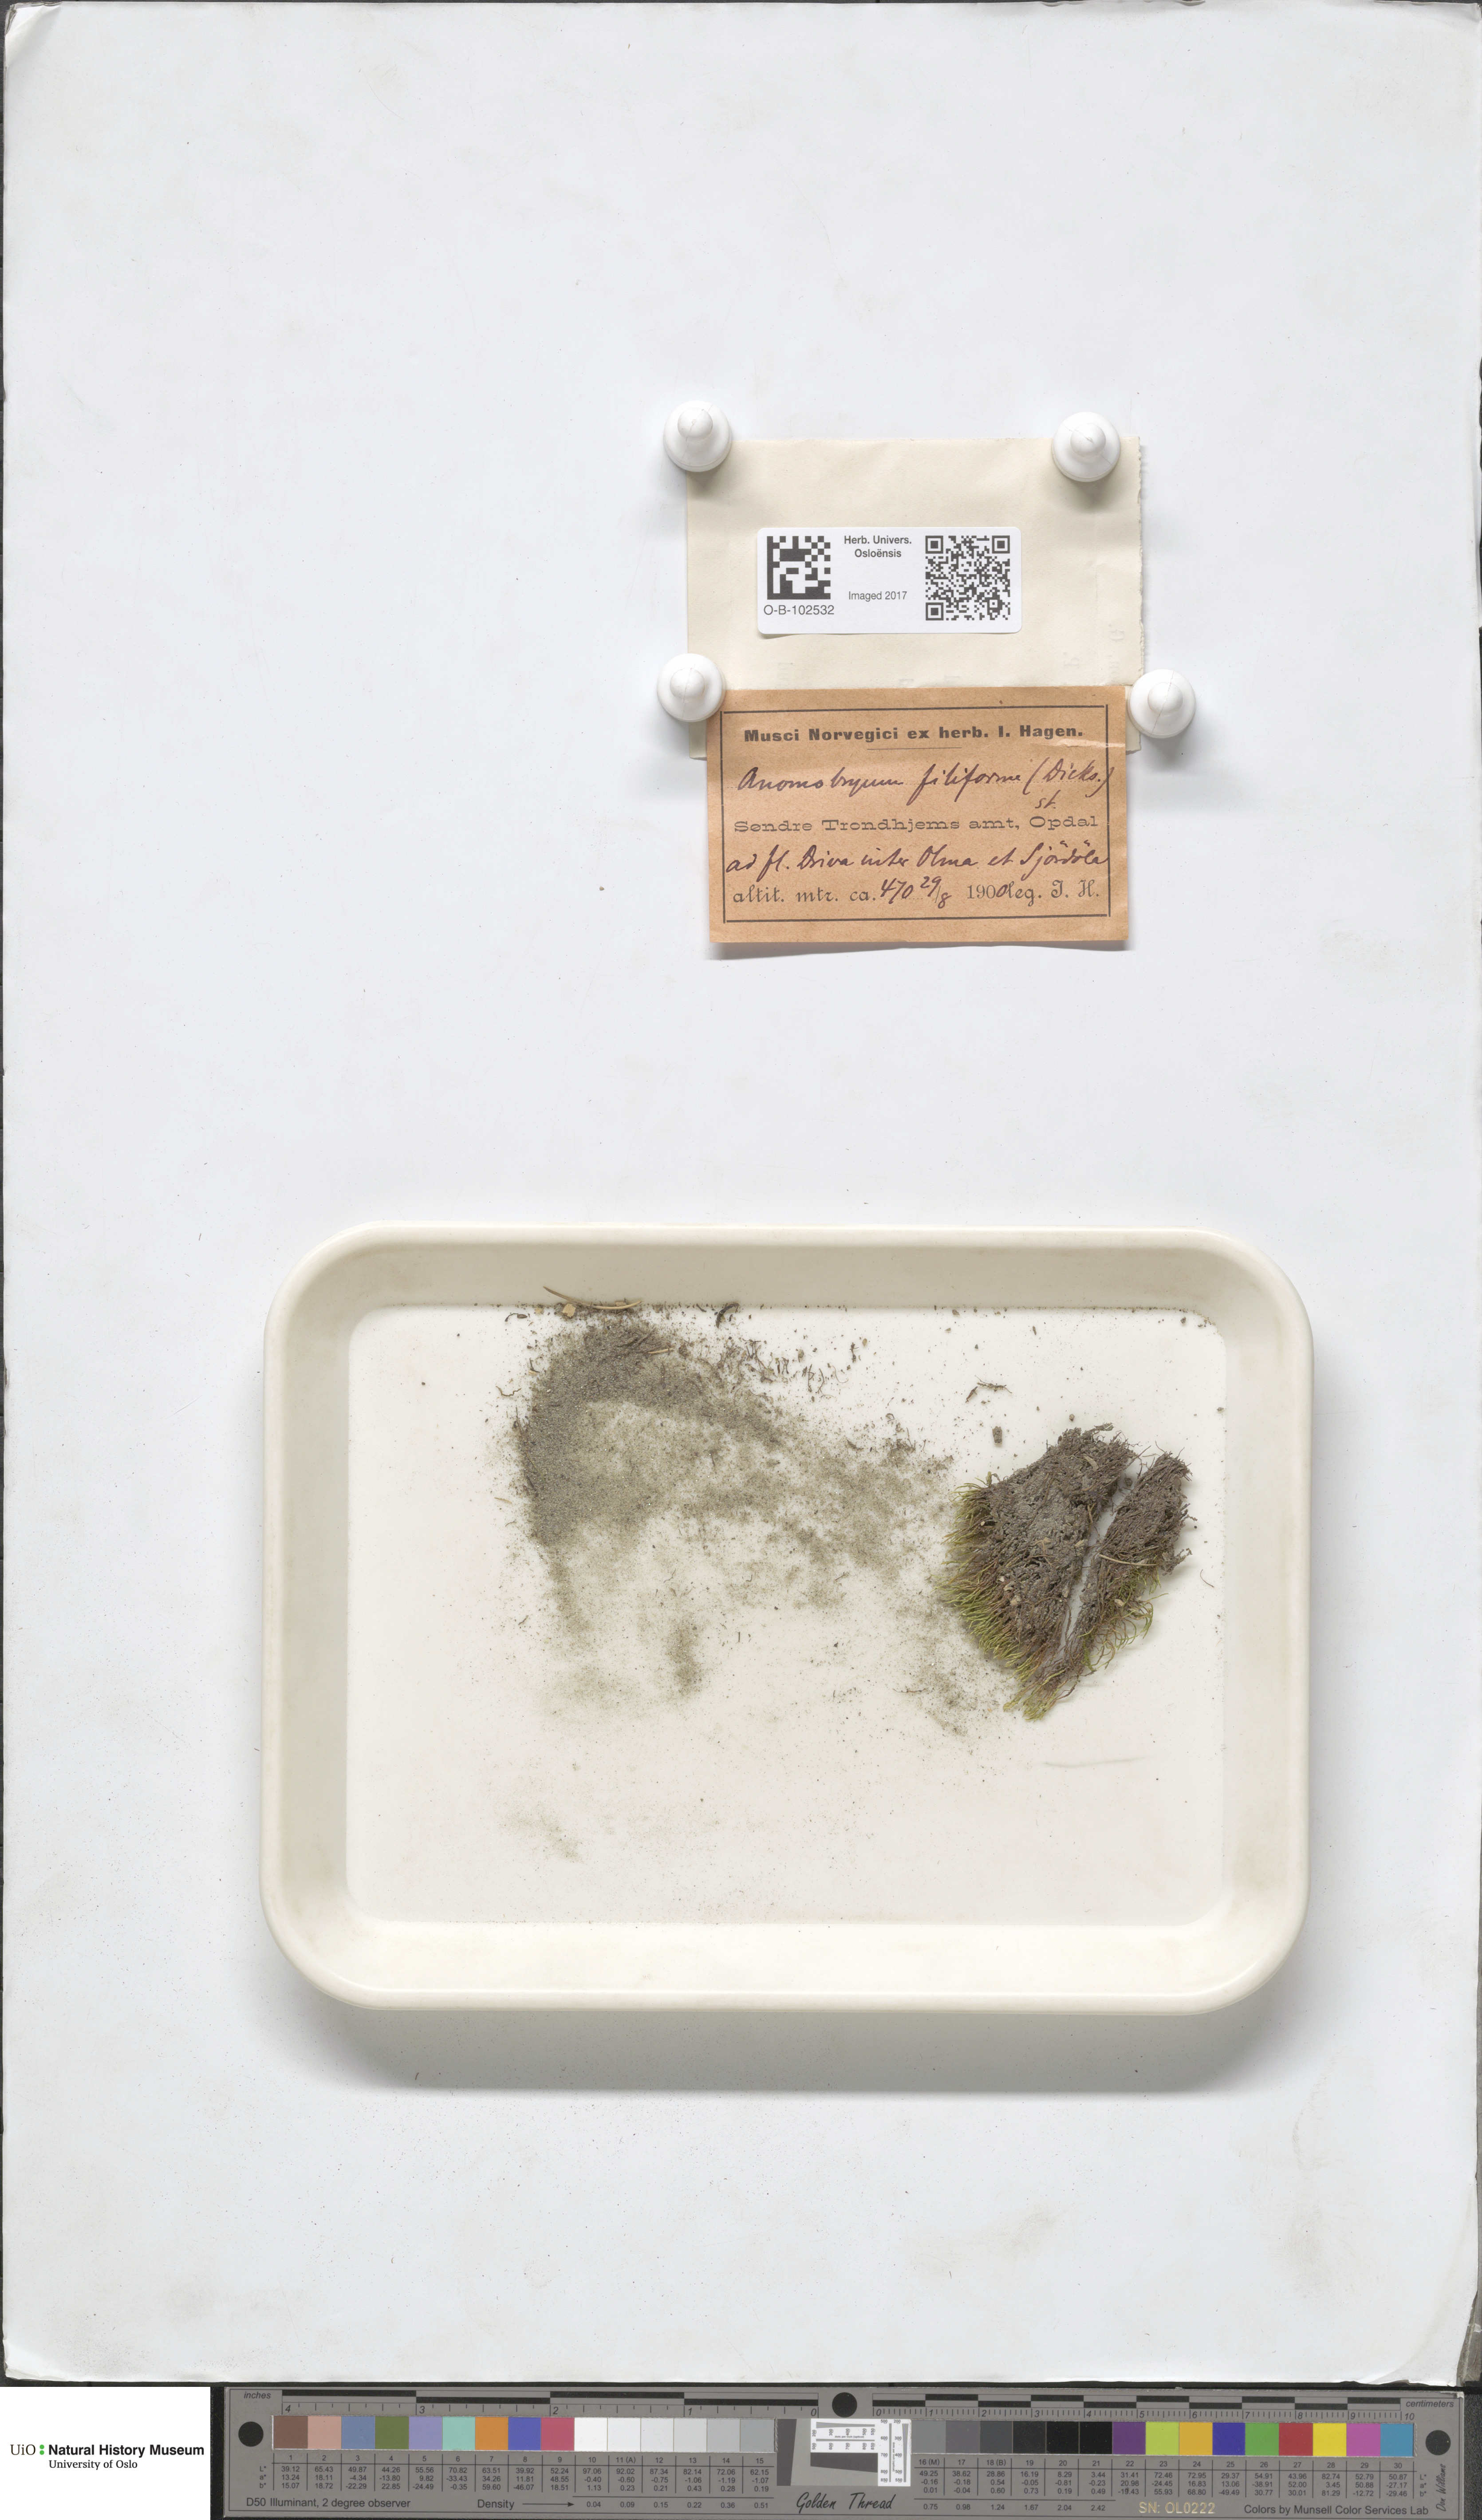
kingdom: Plantae
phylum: Bryophyta
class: Bryopsida
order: Bryales
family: Bryaceae
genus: Anomobryum
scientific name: Anomobryum julaceum
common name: Slender silver moss
